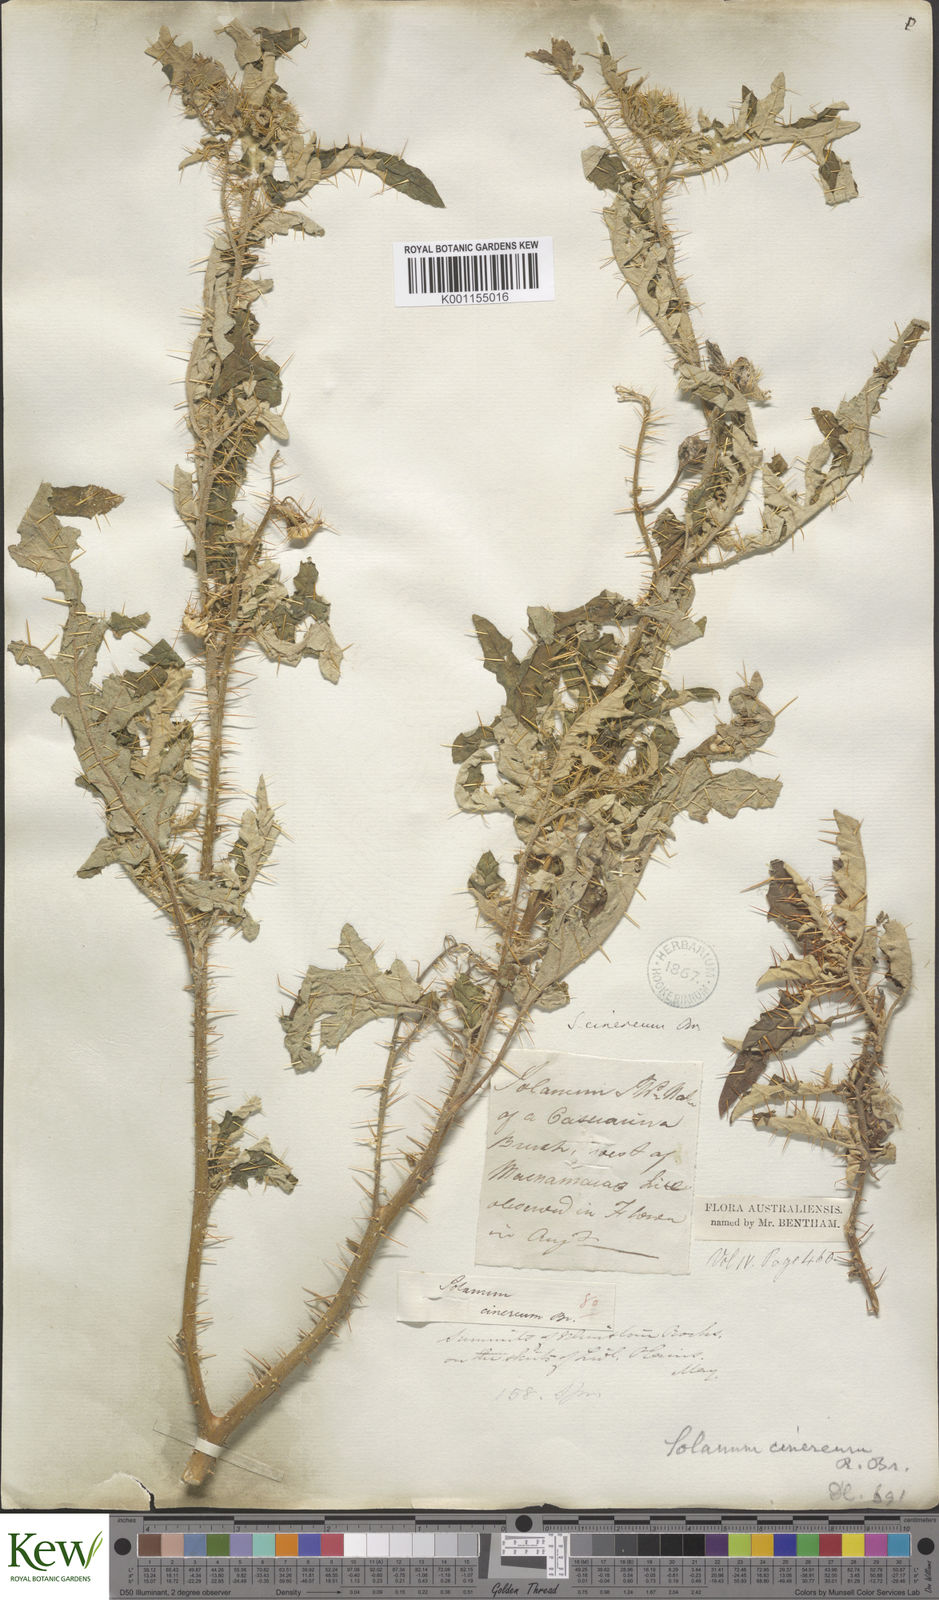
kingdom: Plantae
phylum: Tracheophyta
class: Magnoliopsida
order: Solanales
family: Solanaceae
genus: Solanum
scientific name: Solanum cinereum
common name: Narrawa-bur
